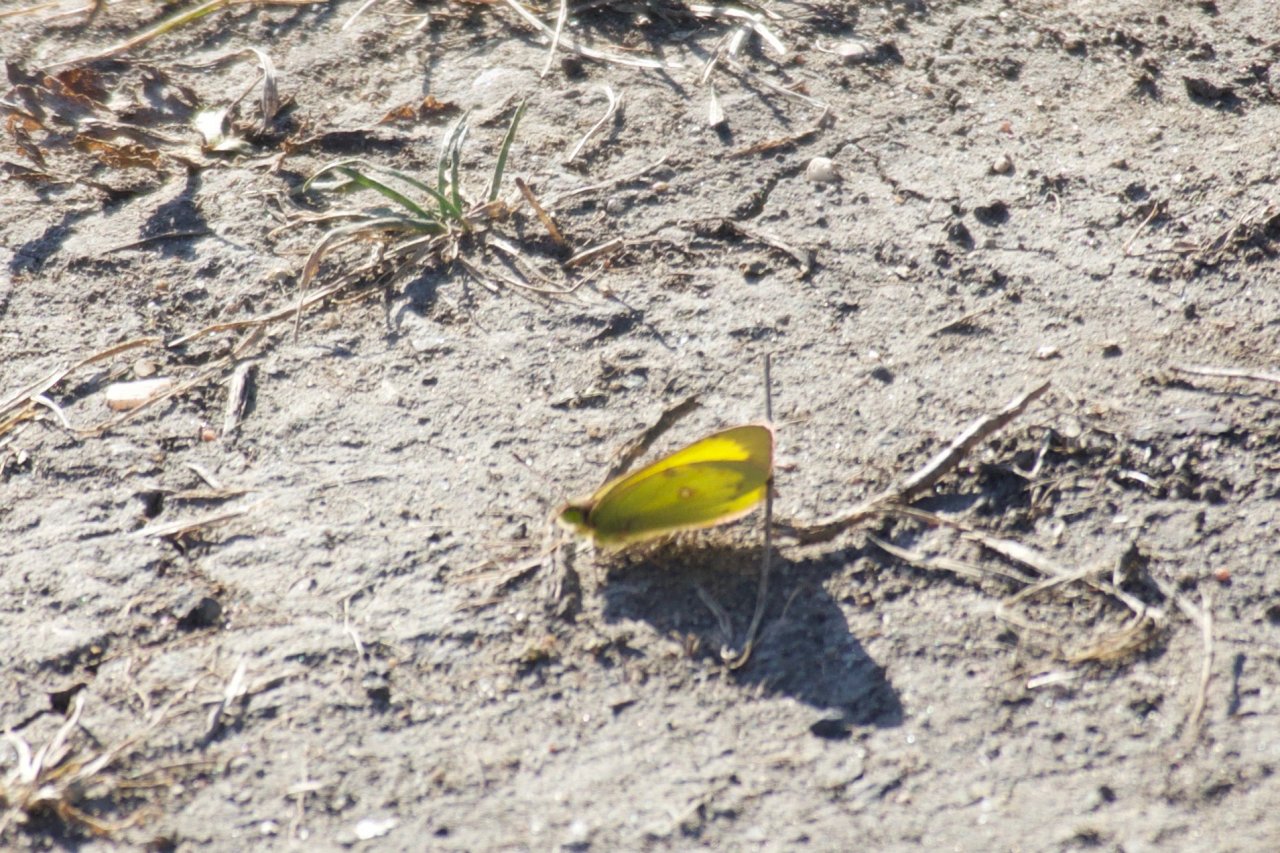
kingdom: Animalia
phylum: Arthropoda
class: Insecta
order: Lepidoptera
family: Pieridae
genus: Colias
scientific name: Colias philodice
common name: Clouded Sulphur
